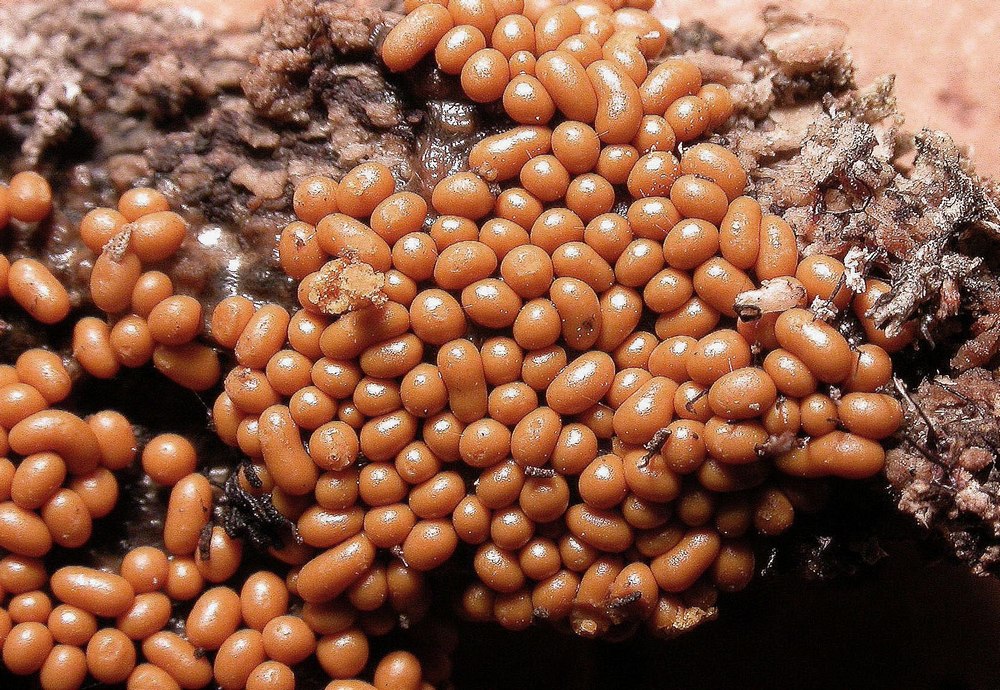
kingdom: Protozoa
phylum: Mycetozoa
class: Myxomycetes
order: Trichiales
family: Trichiaceae
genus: Trichia
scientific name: Trichia varia
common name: foranderlig hårbold
